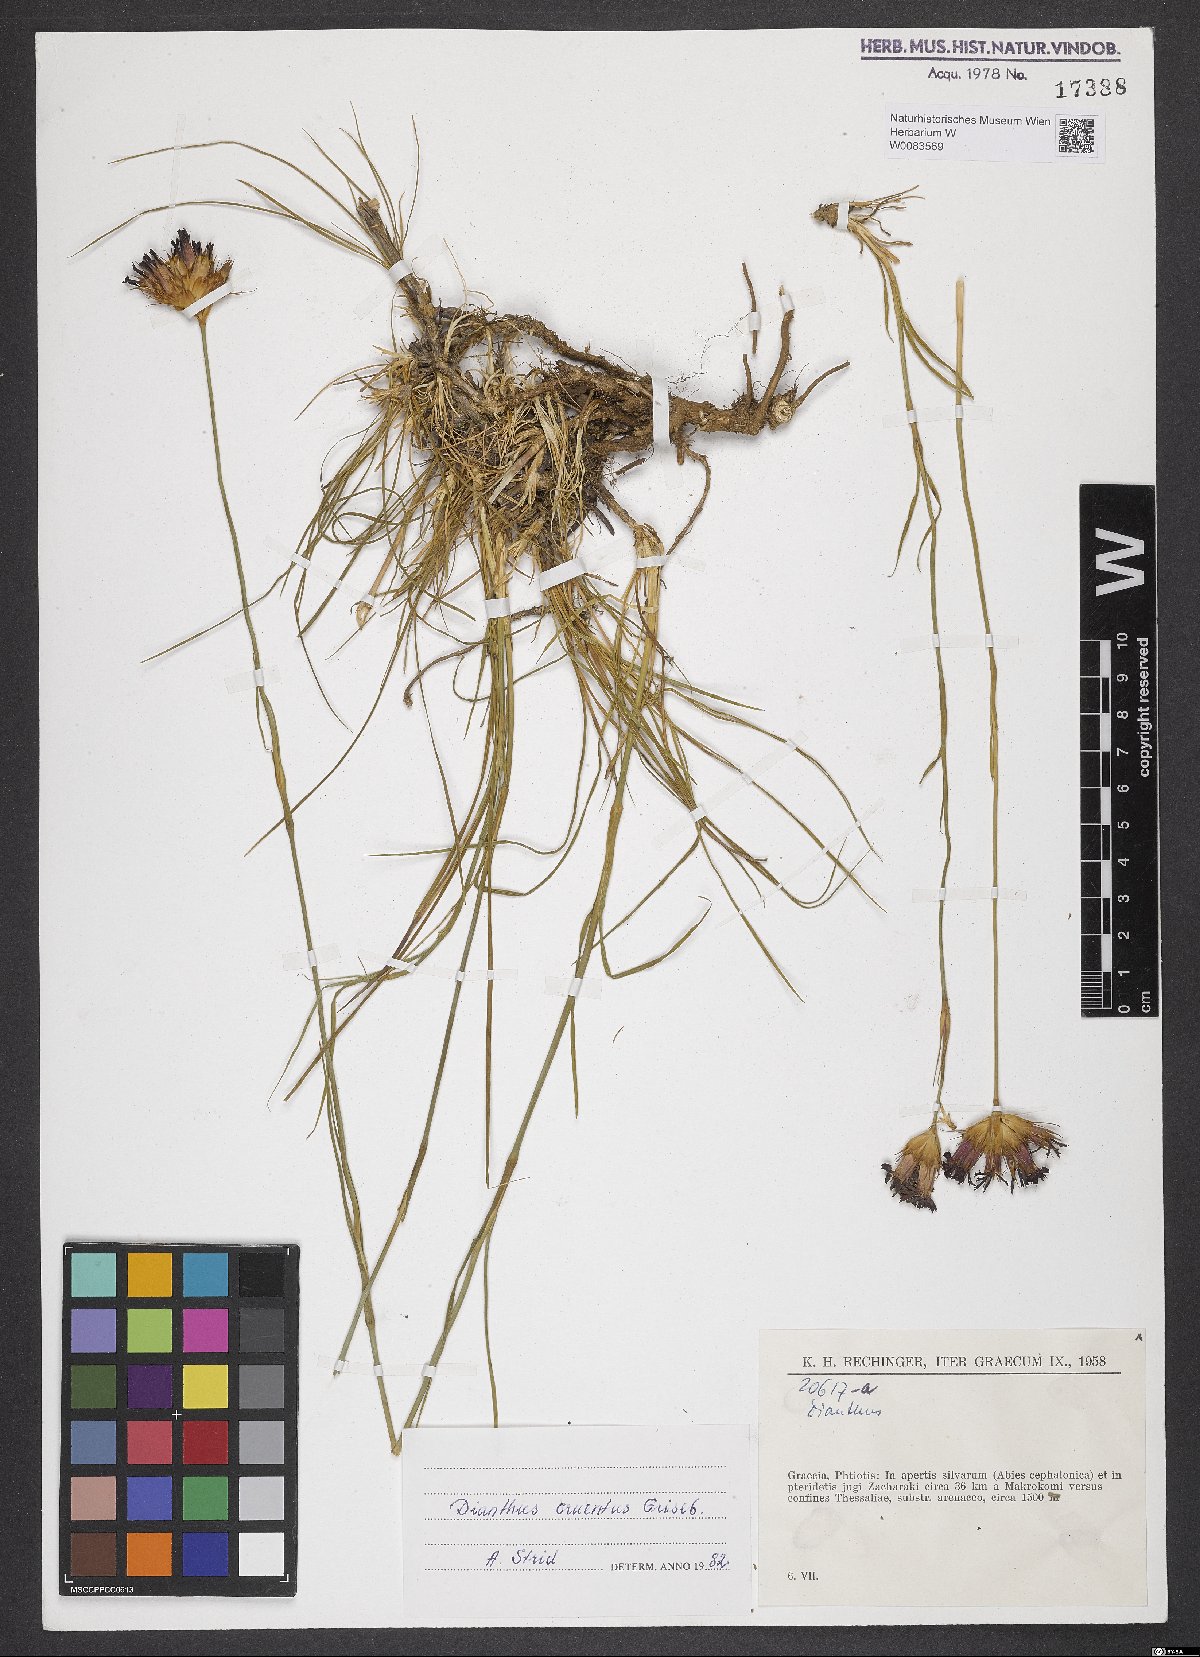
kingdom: Plantae
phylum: Tracheophyta
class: Magnoliopsida
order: Caryophyllales
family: Caryophyllaceae
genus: Dianthus
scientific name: Dianthus cruentus
